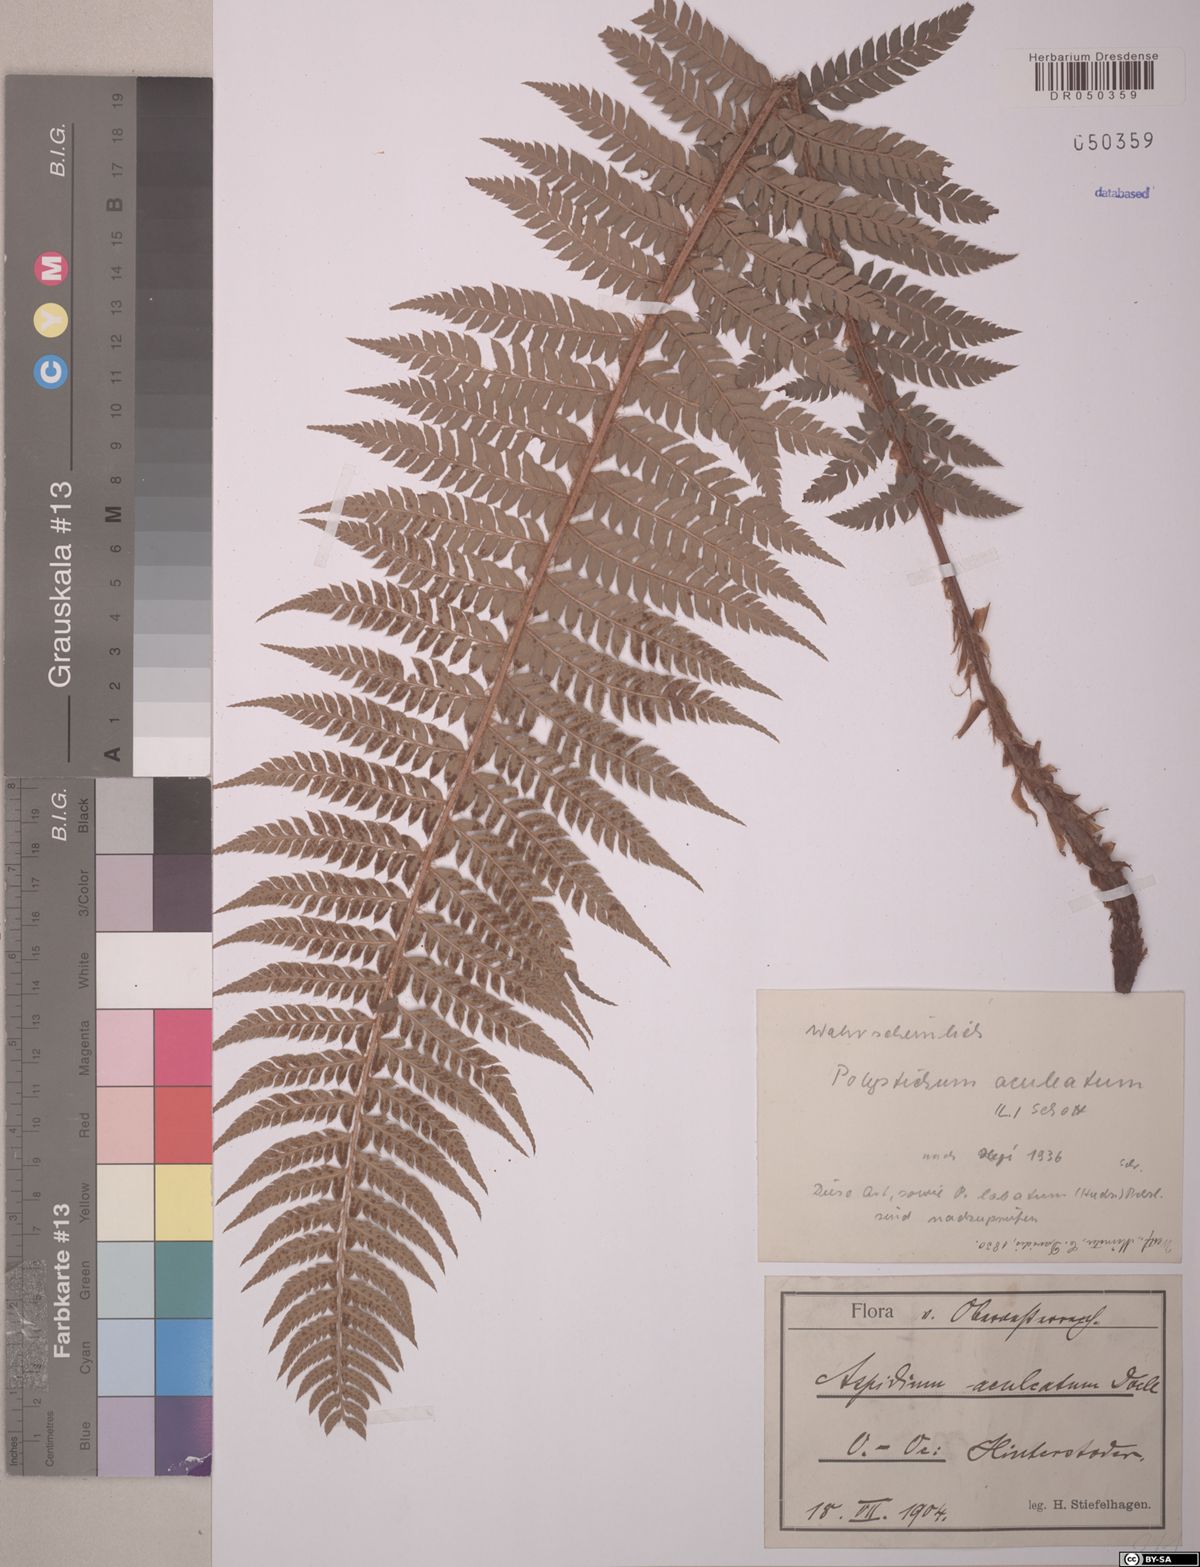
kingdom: Plantae
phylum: Tracheophyta
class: Polypodiopsida
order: Polypodiales
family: Dryopteridaceae
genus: Polystichum
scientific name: Polystichum aculeatum
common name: Hard shield-fern
